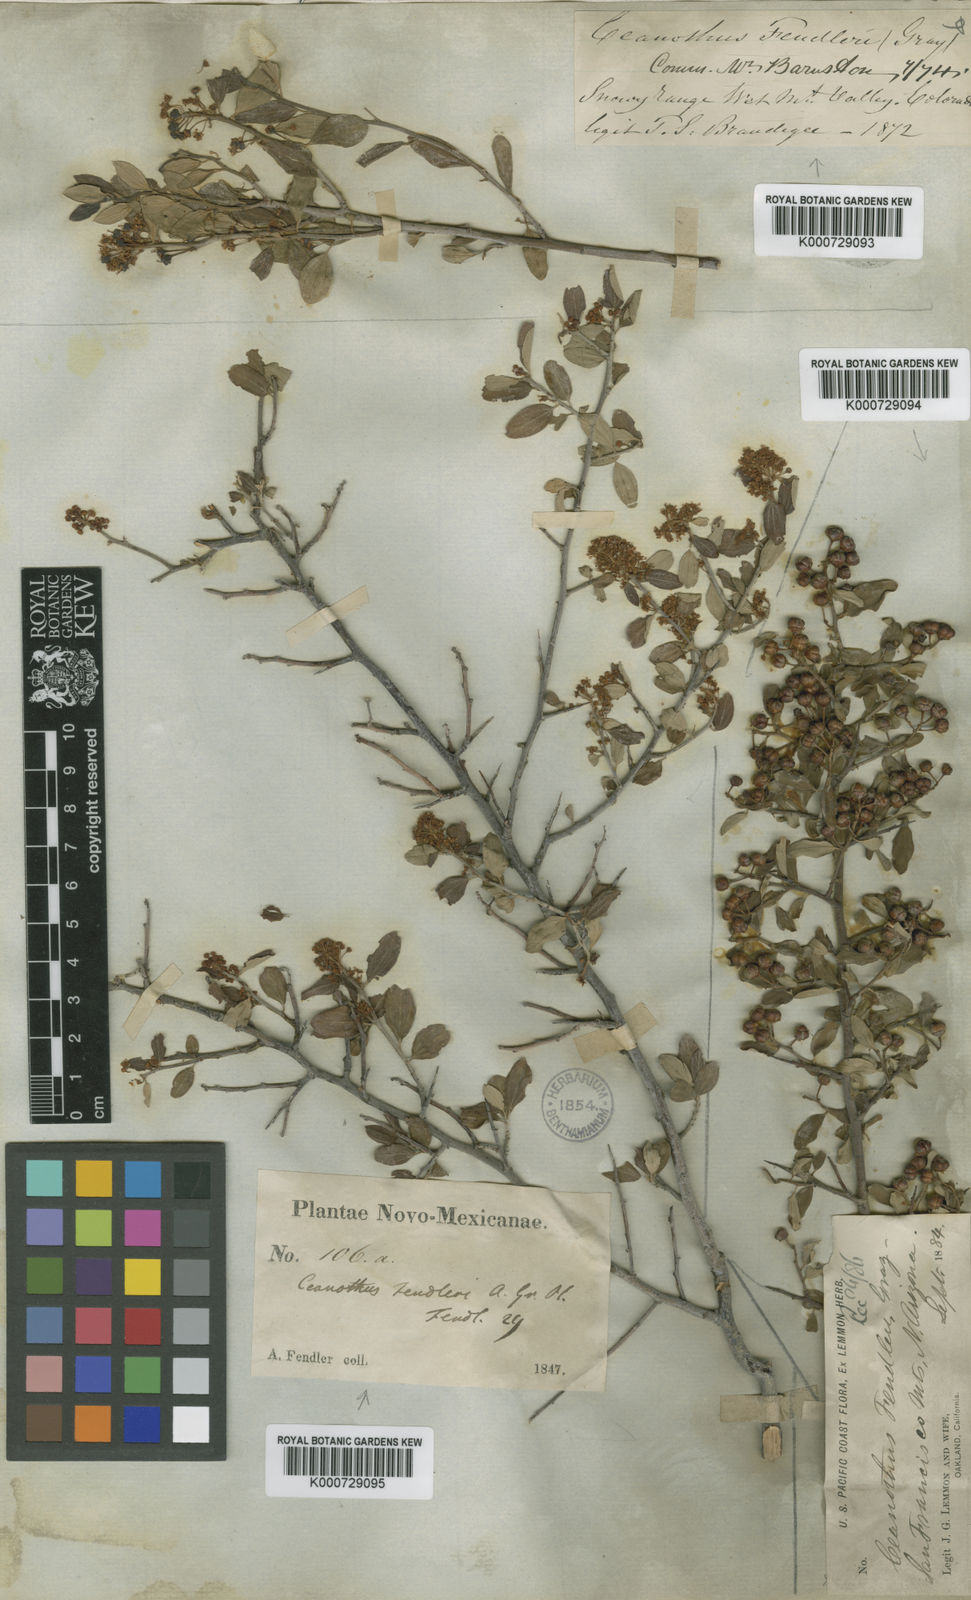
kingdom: Plantae
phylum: Tracheophyta
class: Magnoliopsida
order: Rosales
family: Rhamnaceae
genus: Ceanothus
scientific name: Ceanothus fendleri
